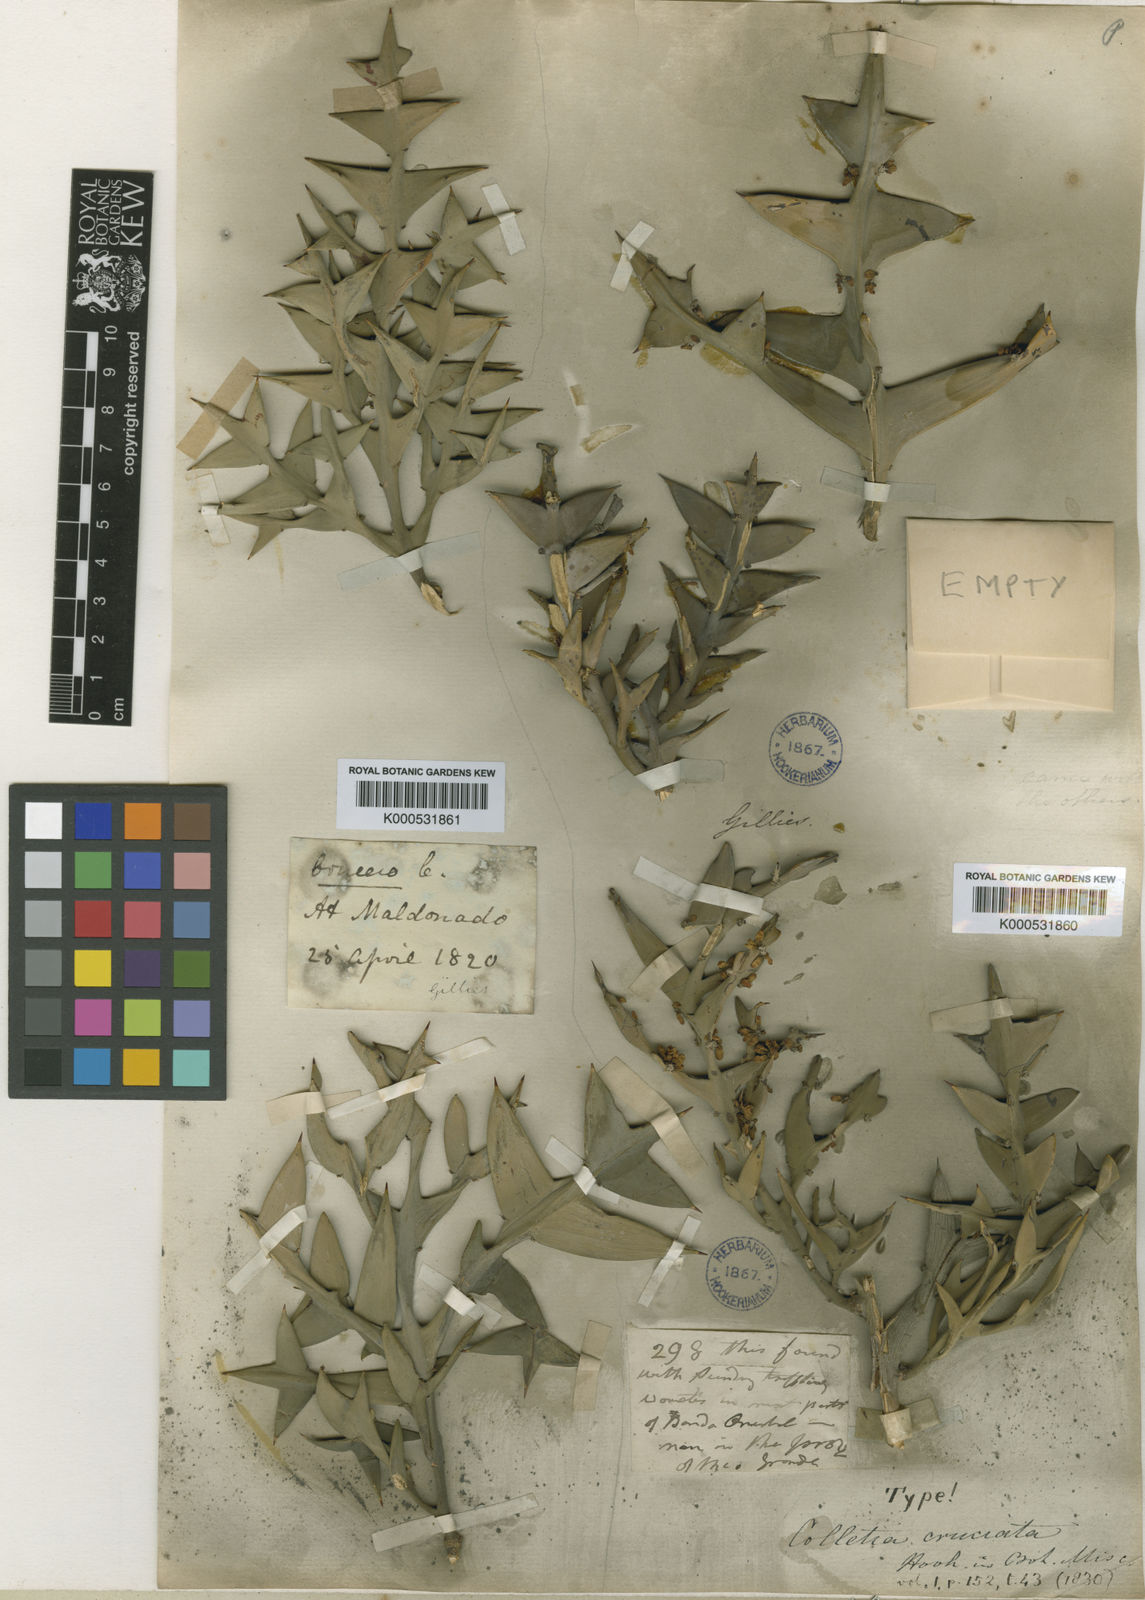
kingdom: Plantae
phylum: Tracheophyta
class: Magnoliopsida
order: Rosales
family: Rhamnaceae
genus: Colletia
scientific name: Colletia paradoxa
